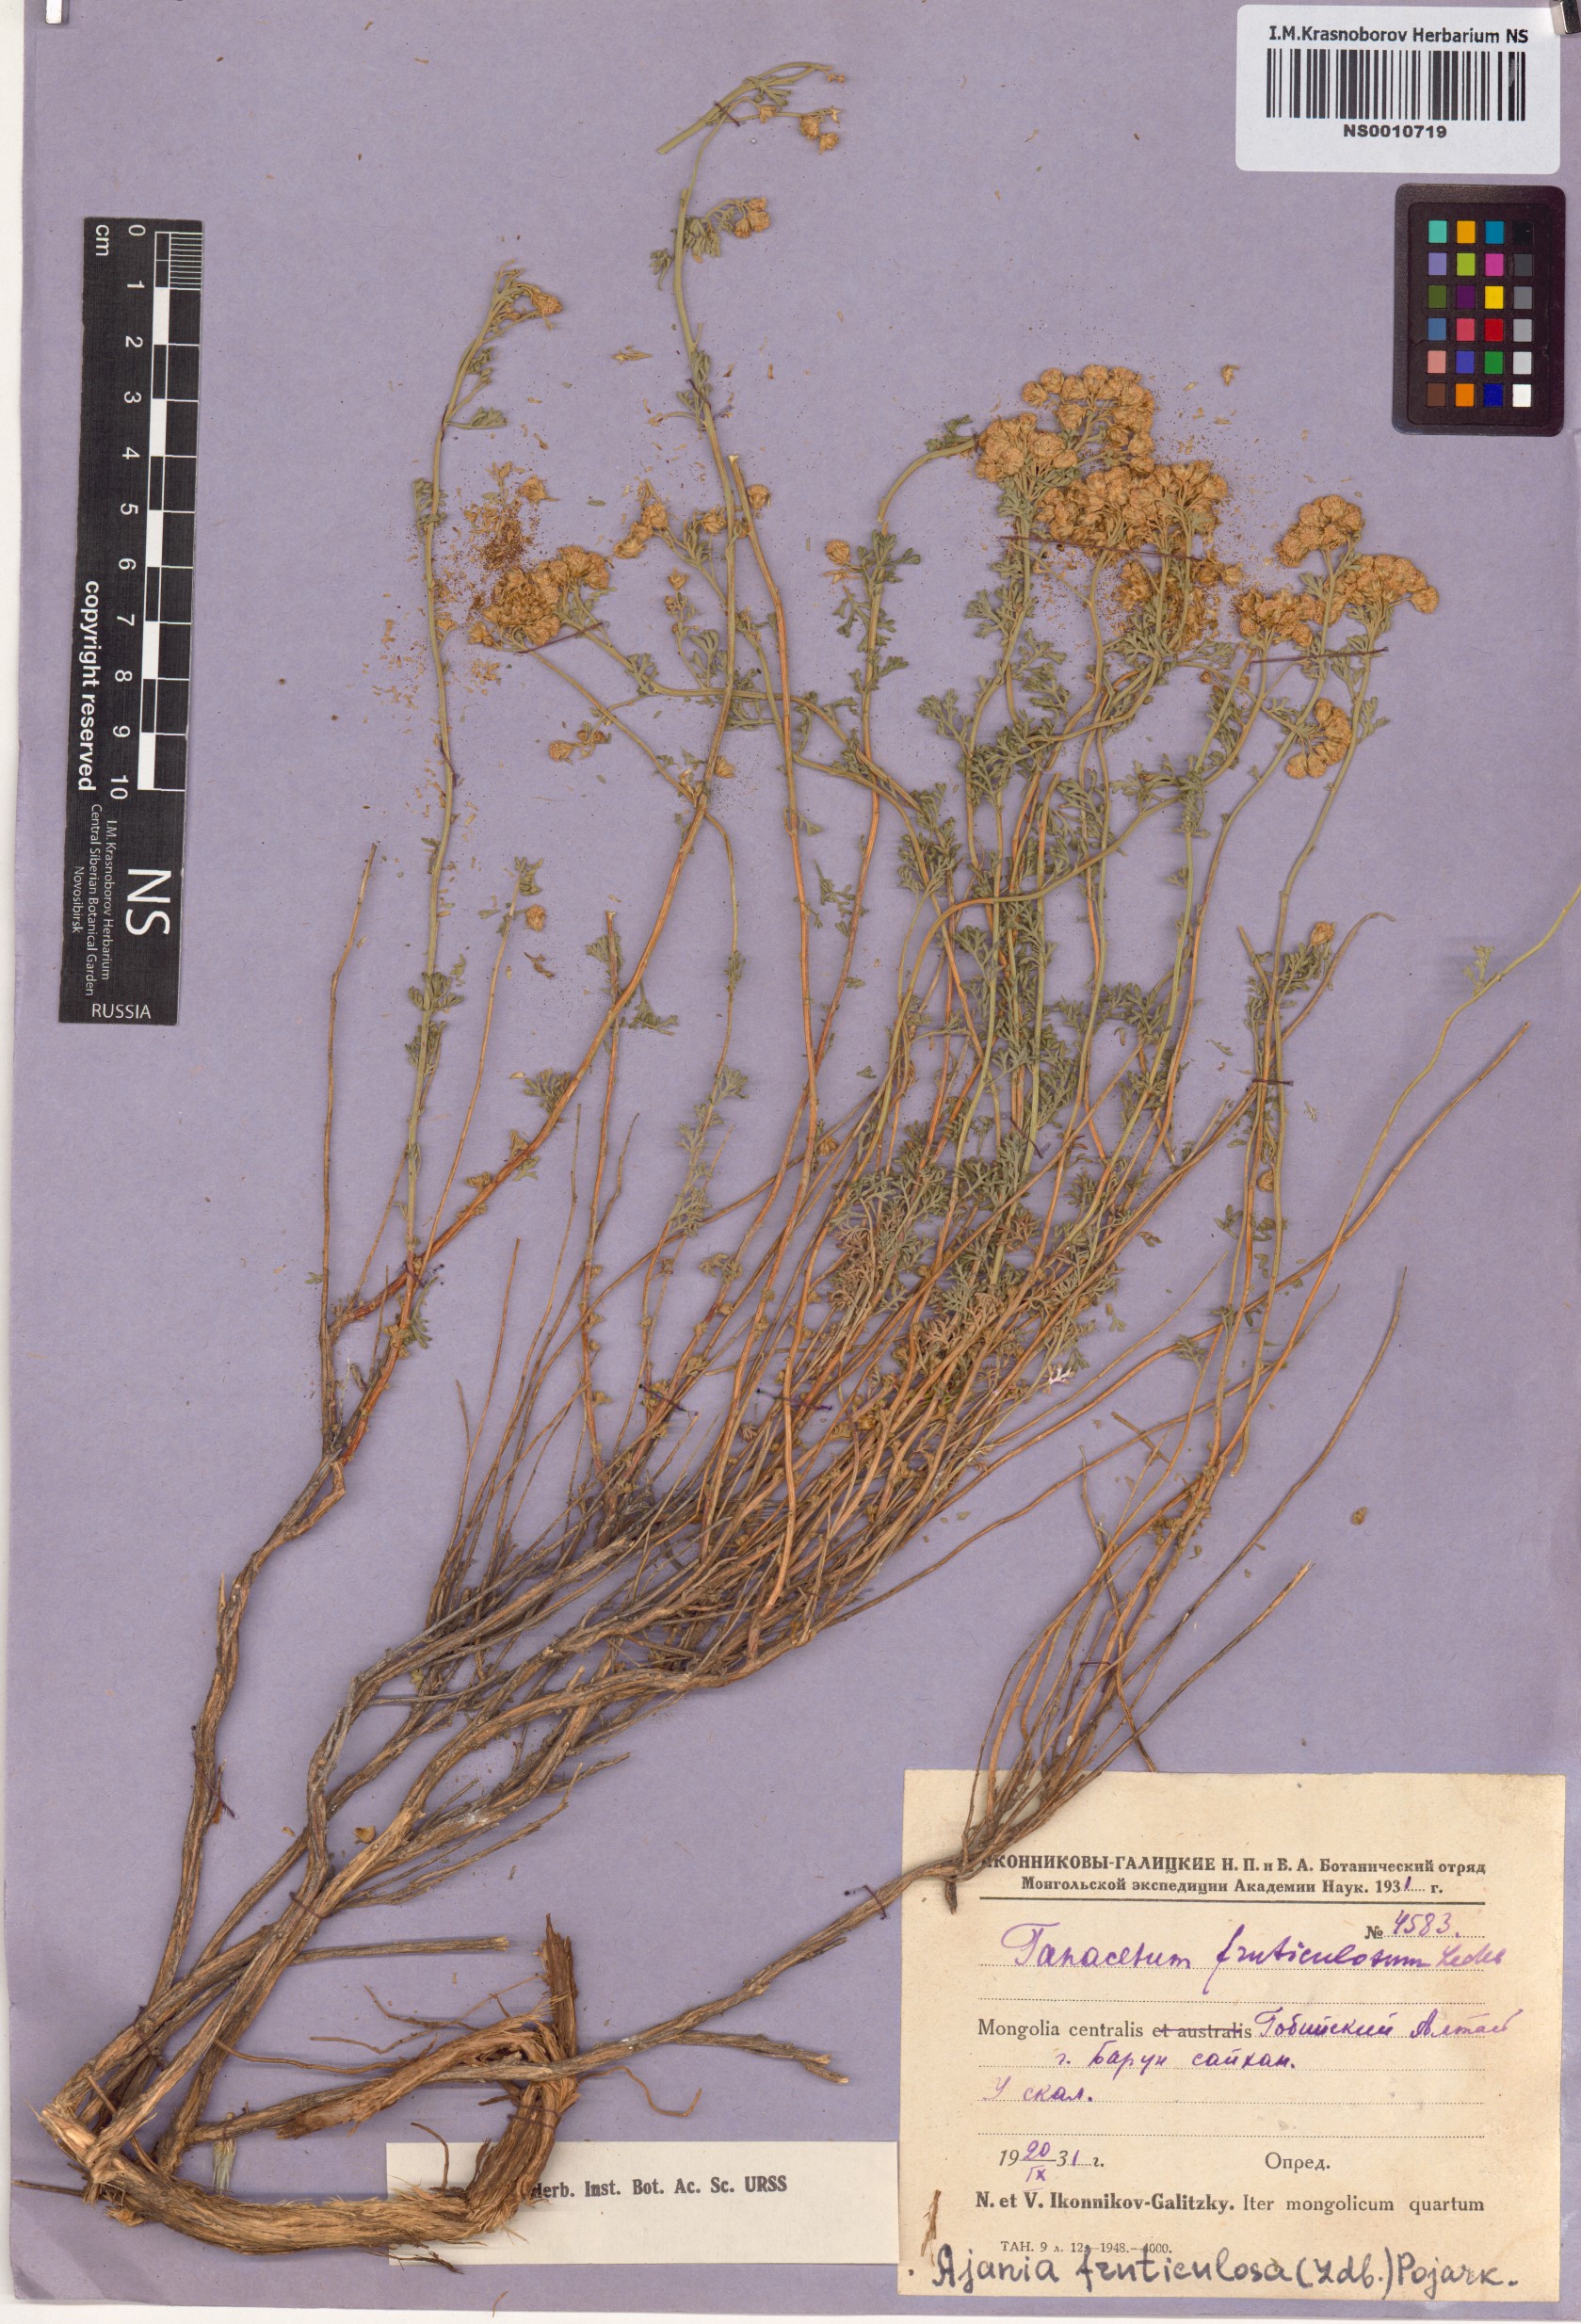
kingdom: Plantae
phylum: Tracheophyta
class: Magnoliopsida
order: Asterales
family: Asteraceae
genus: Ajania
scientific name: Ajania fruticulosa
